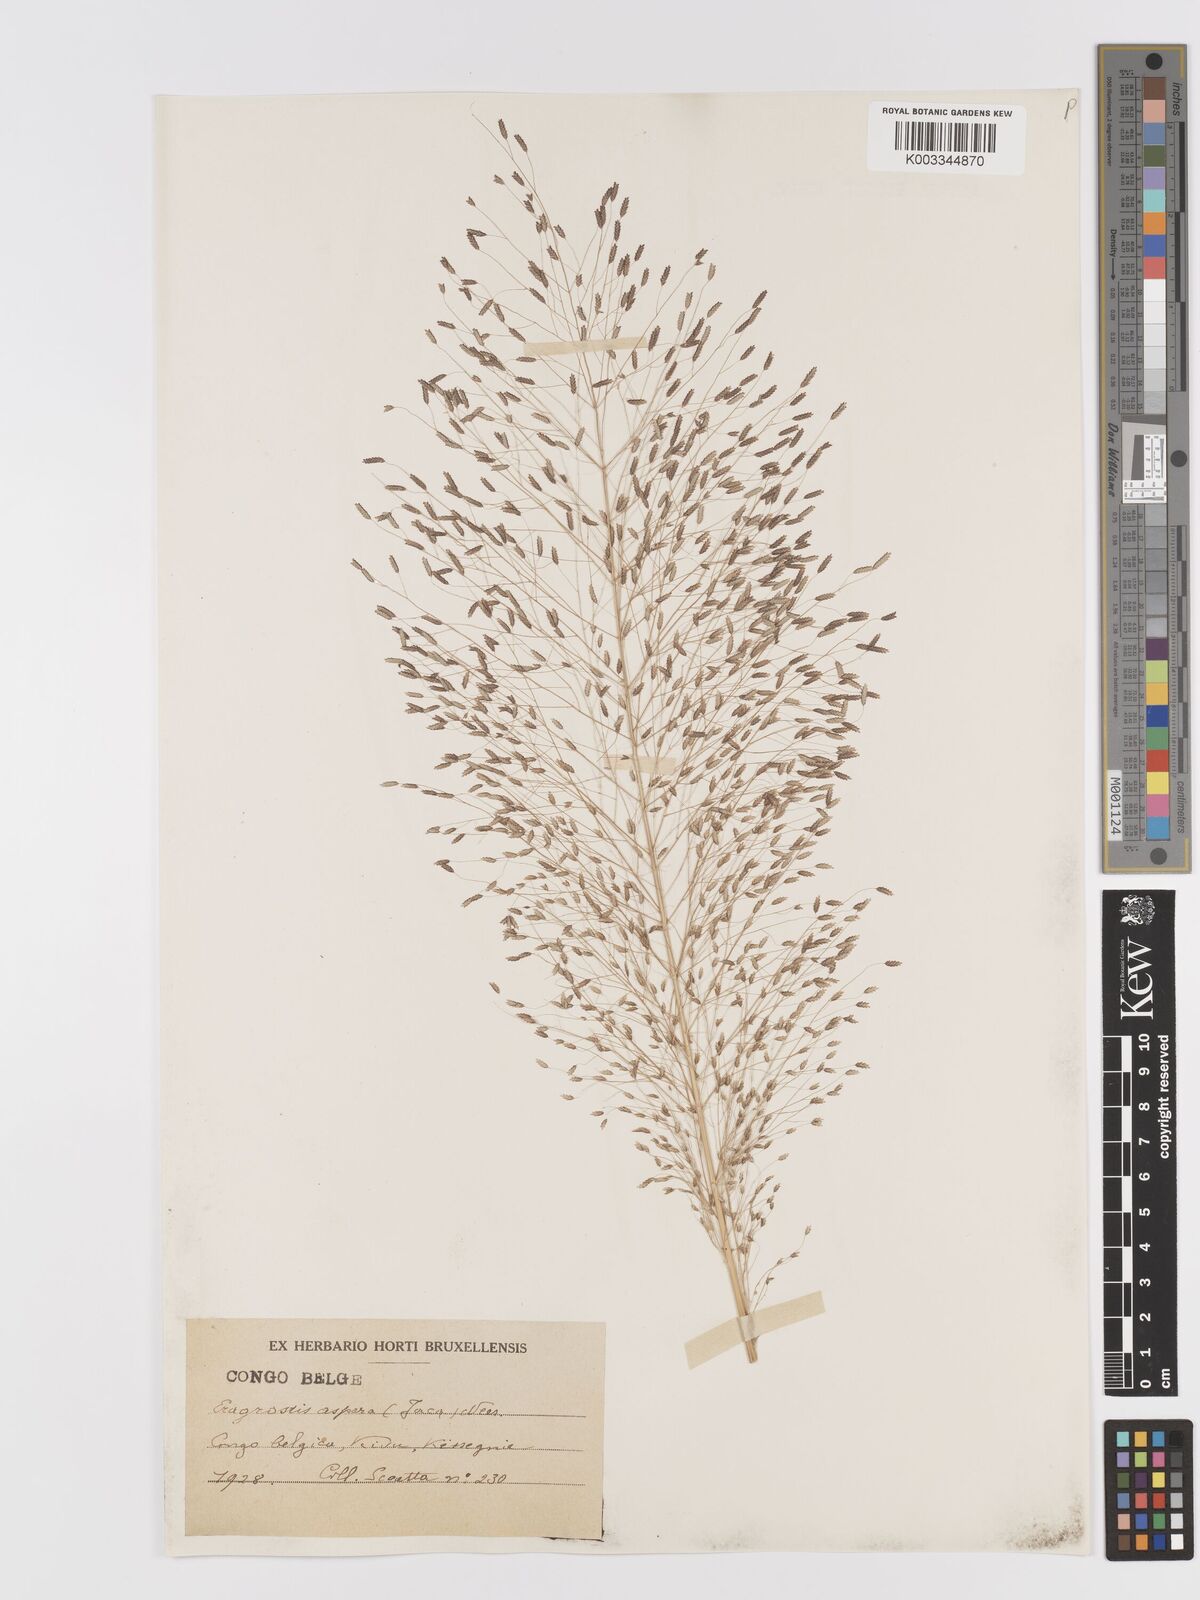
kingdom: Plantae
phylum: Tracheophyta
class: Liliopsida
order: Poales
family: Poaceae
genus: Eragrostis
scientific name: Eragrostis aspera
